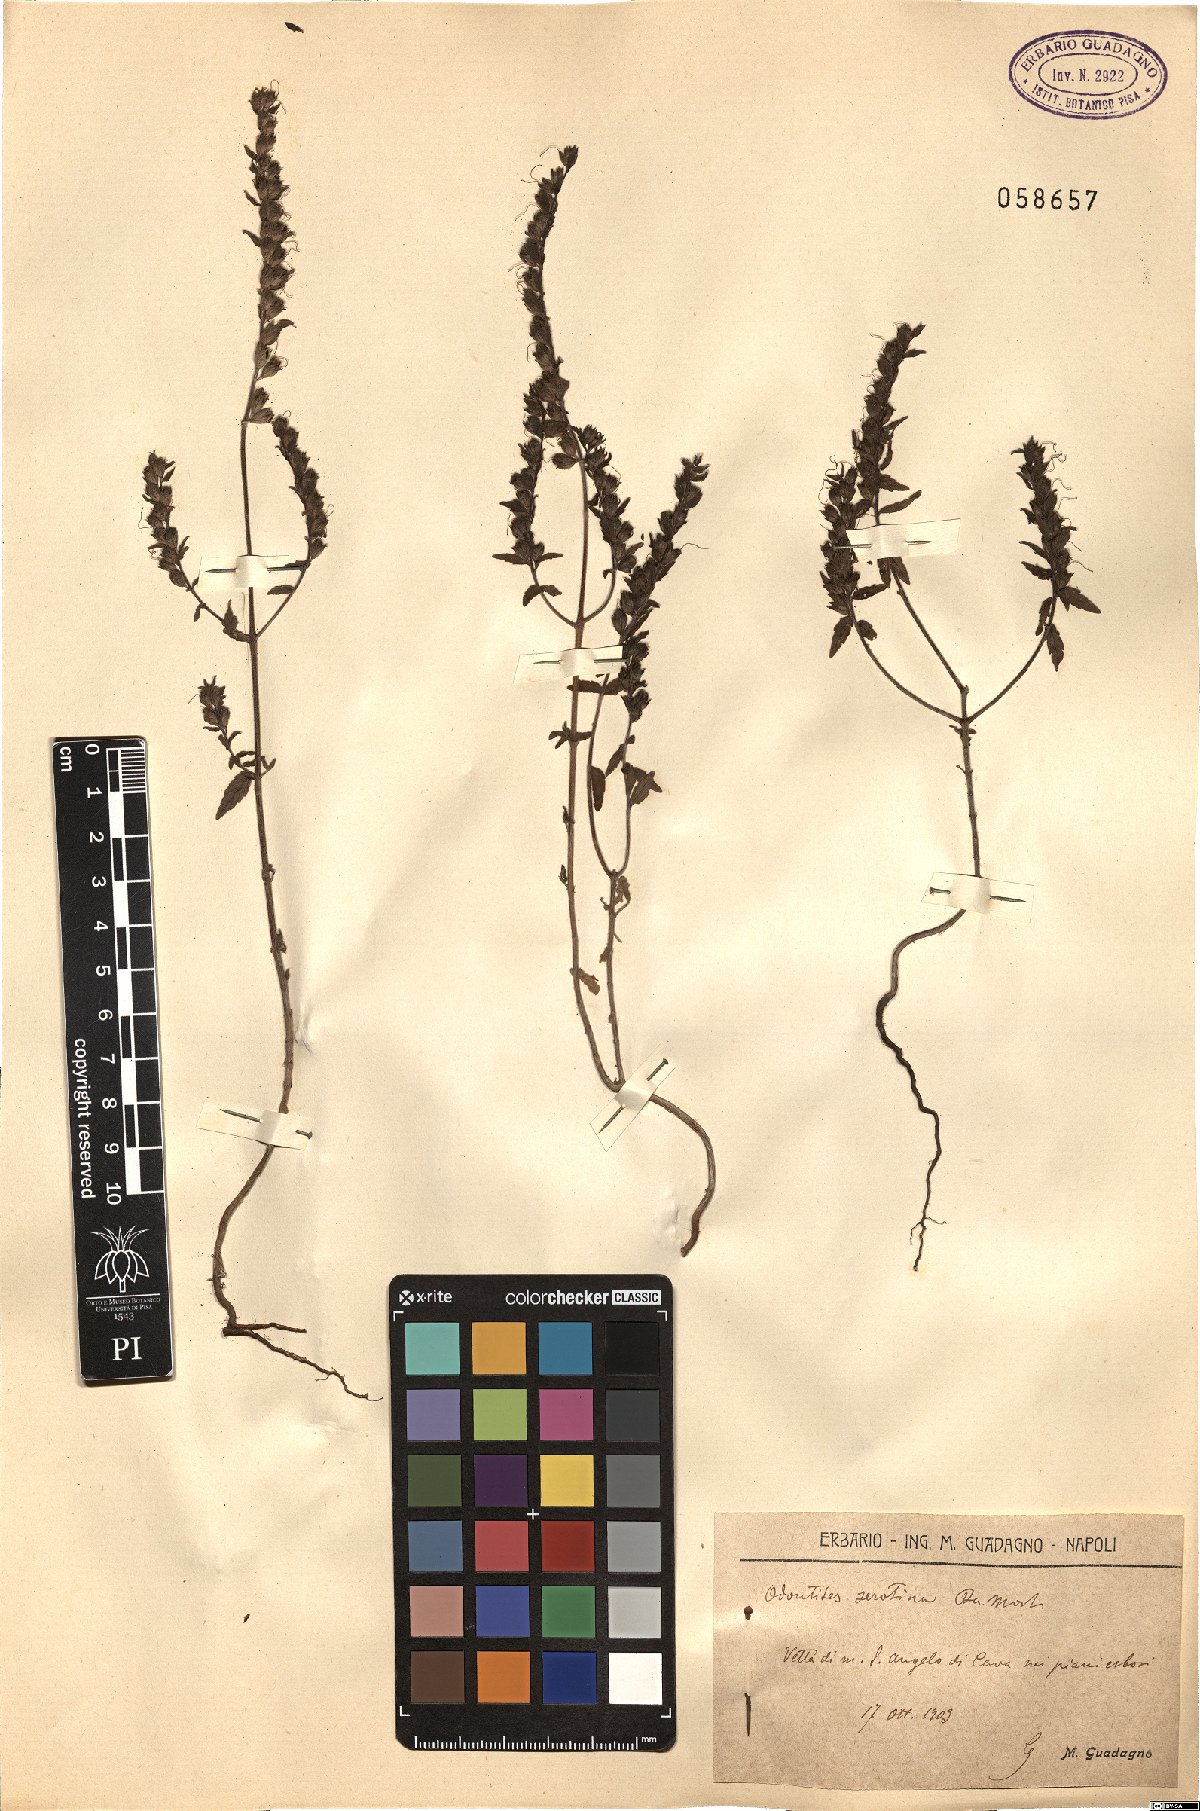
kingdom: Plantae
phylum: Tracheophyta
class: Magnoliopsida
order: Lamiales
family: Orobanchaceae
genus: Odontites
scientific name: Odontites vulgaris
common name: Broomrape
